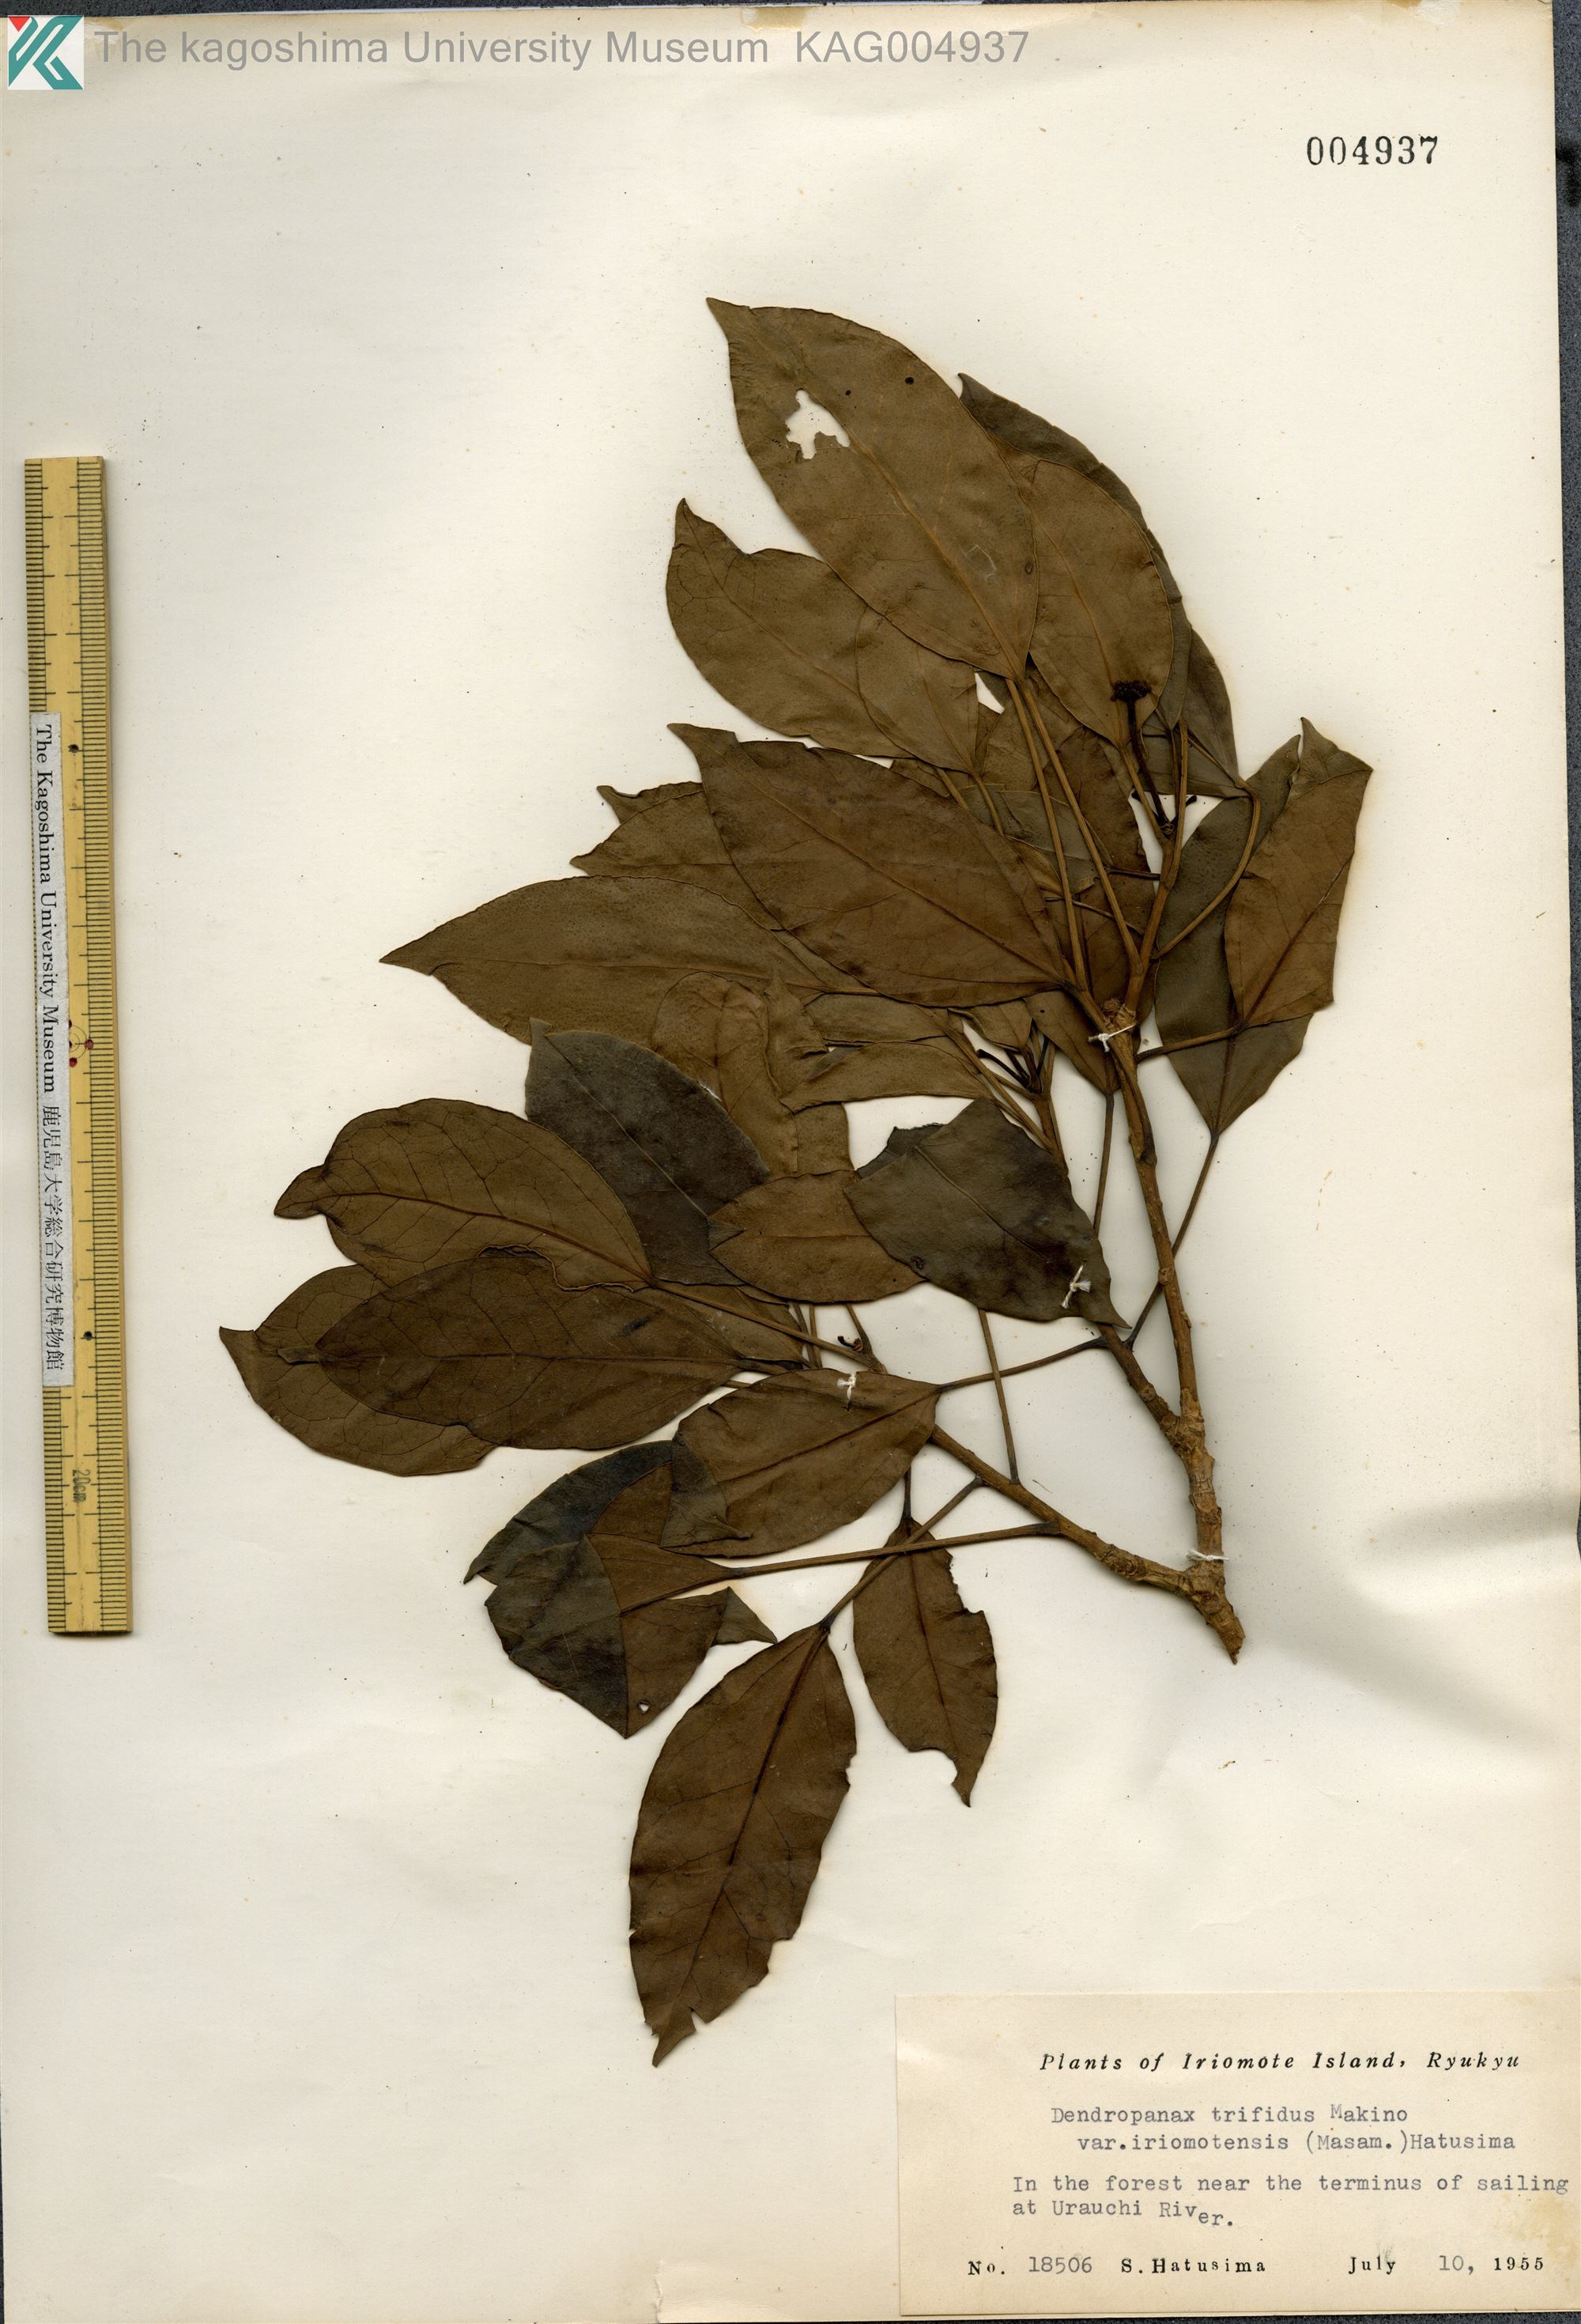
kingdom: Plantae
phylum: Tracheophyta
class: Magnoliopsida
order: Apiales
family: Araliaceae
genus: Dendropanax
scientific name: Dendropanax trifidus
